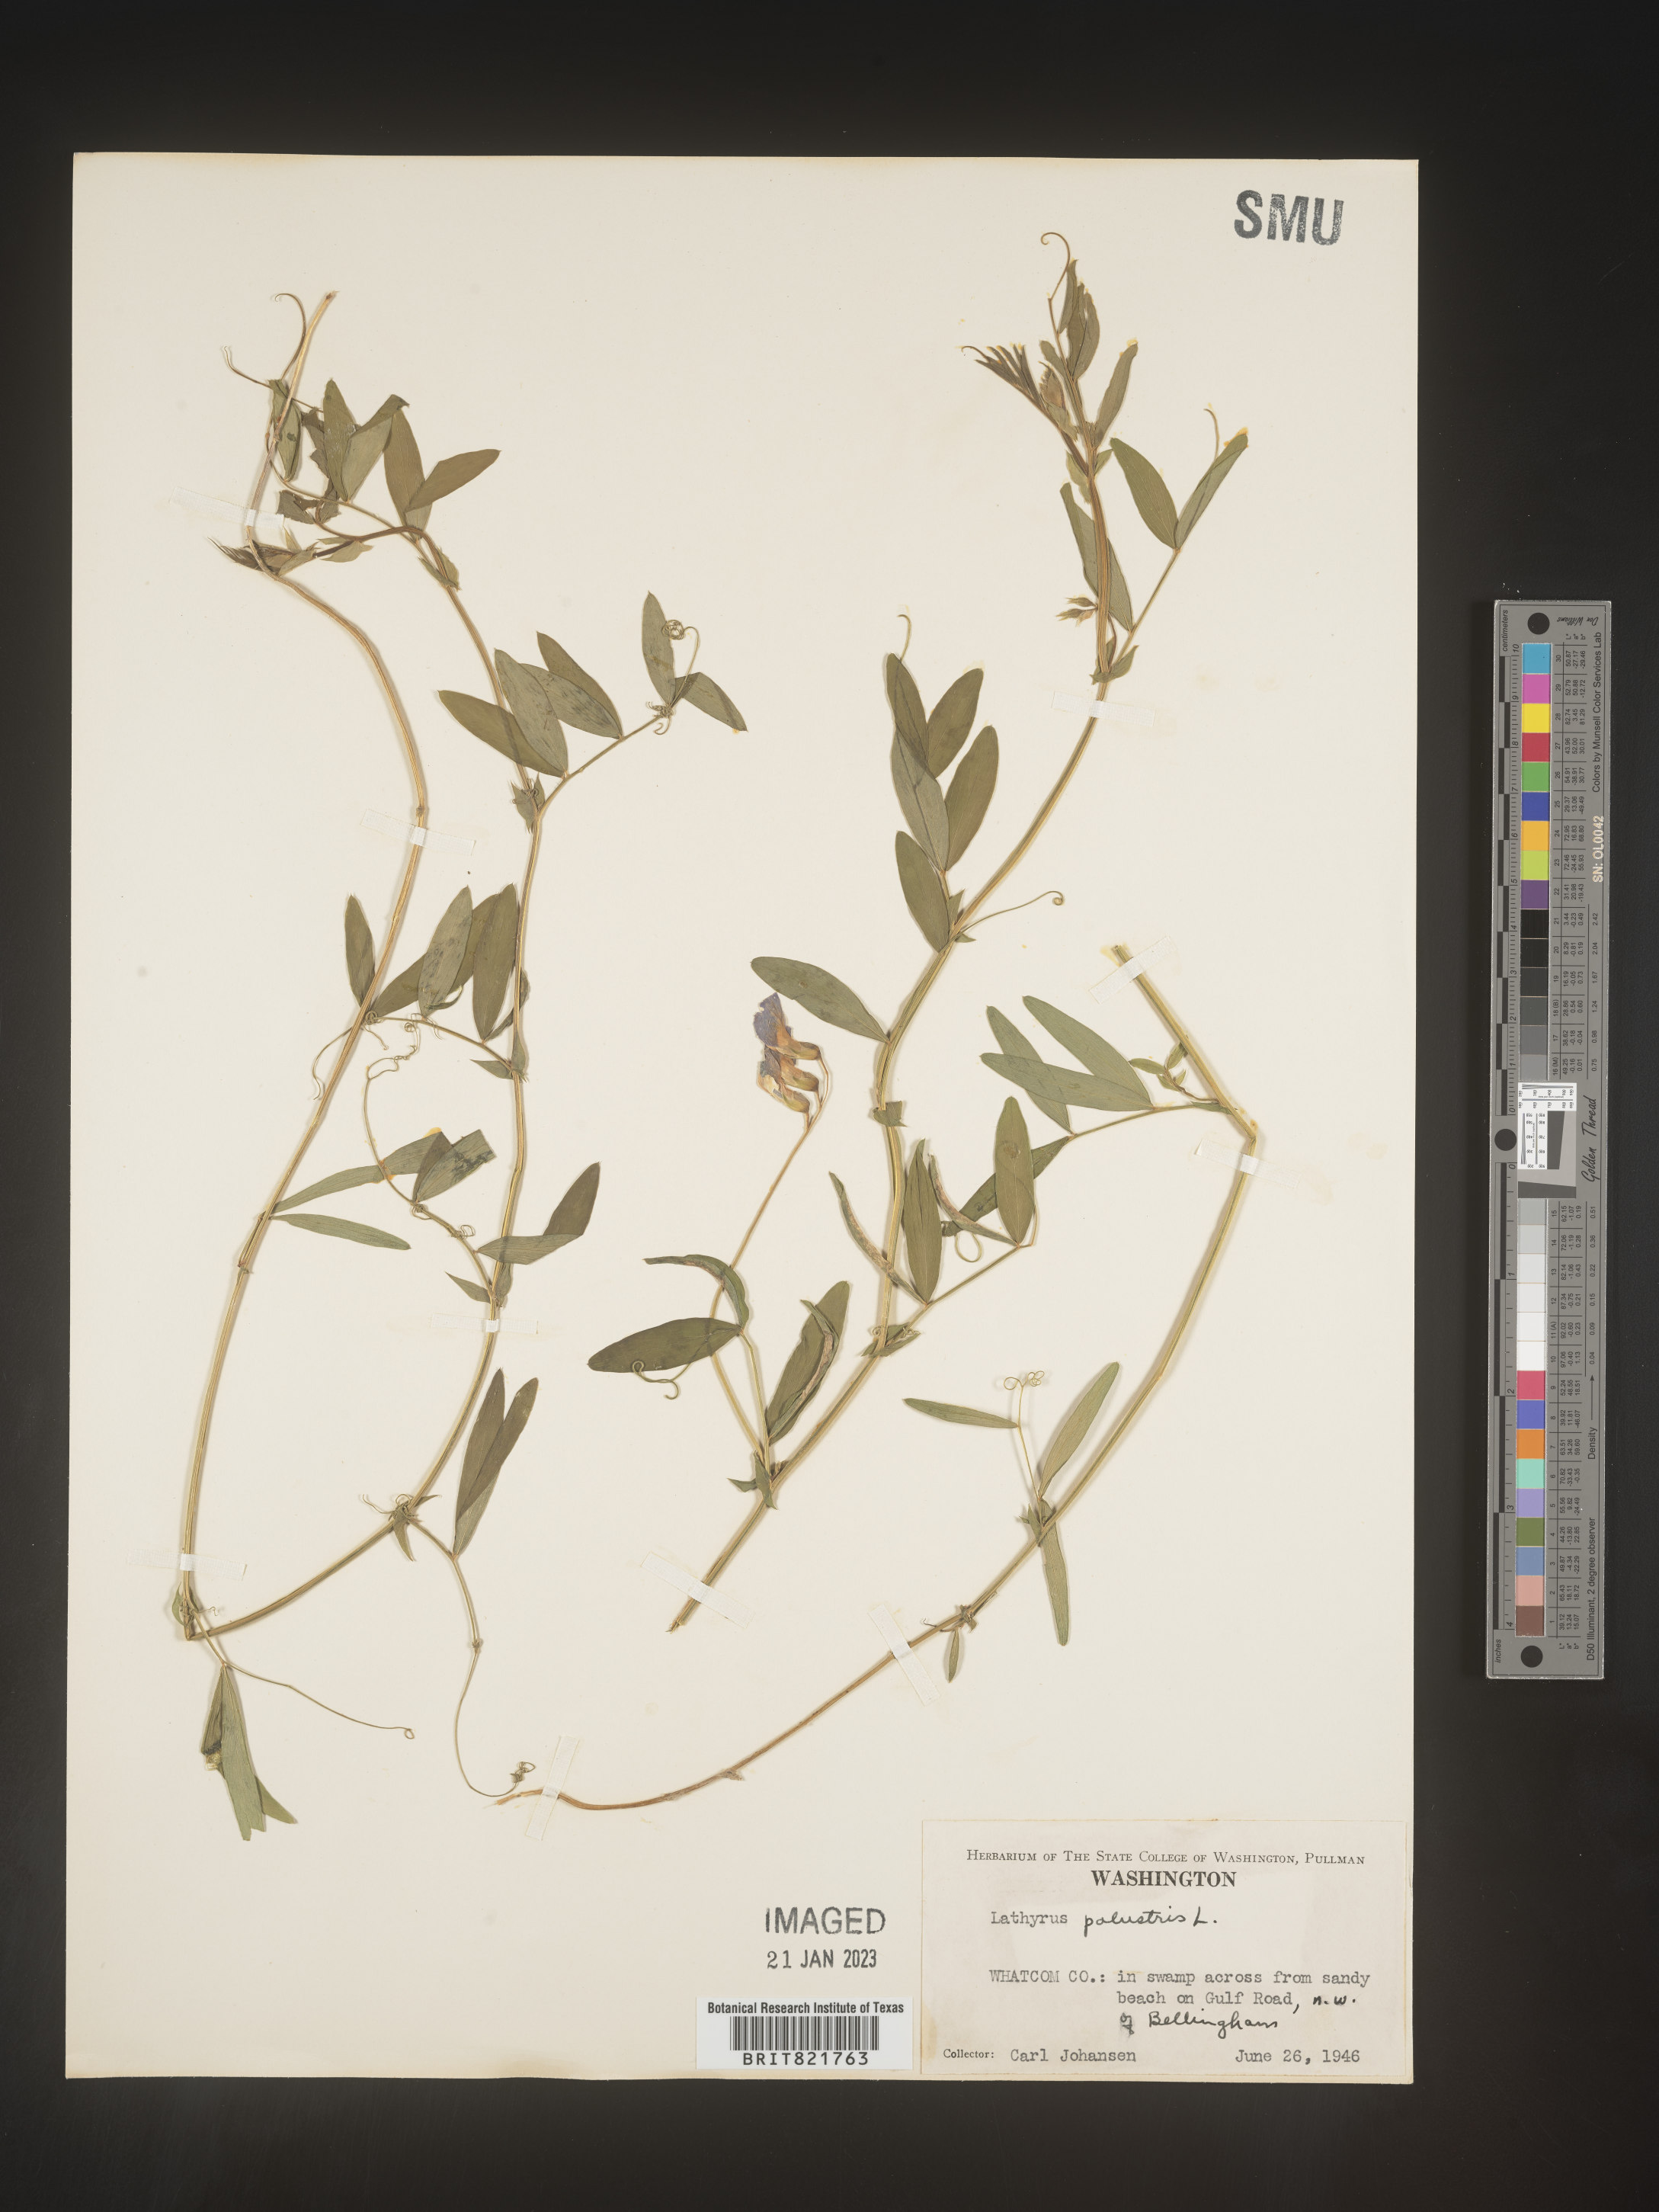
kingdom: Plantae
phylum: Tracheophyta
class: Magnoliopsida
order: Fabales
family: Fabaceae
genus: Lathyrus
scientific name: Lathyrus palustris
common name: Marsh pea
